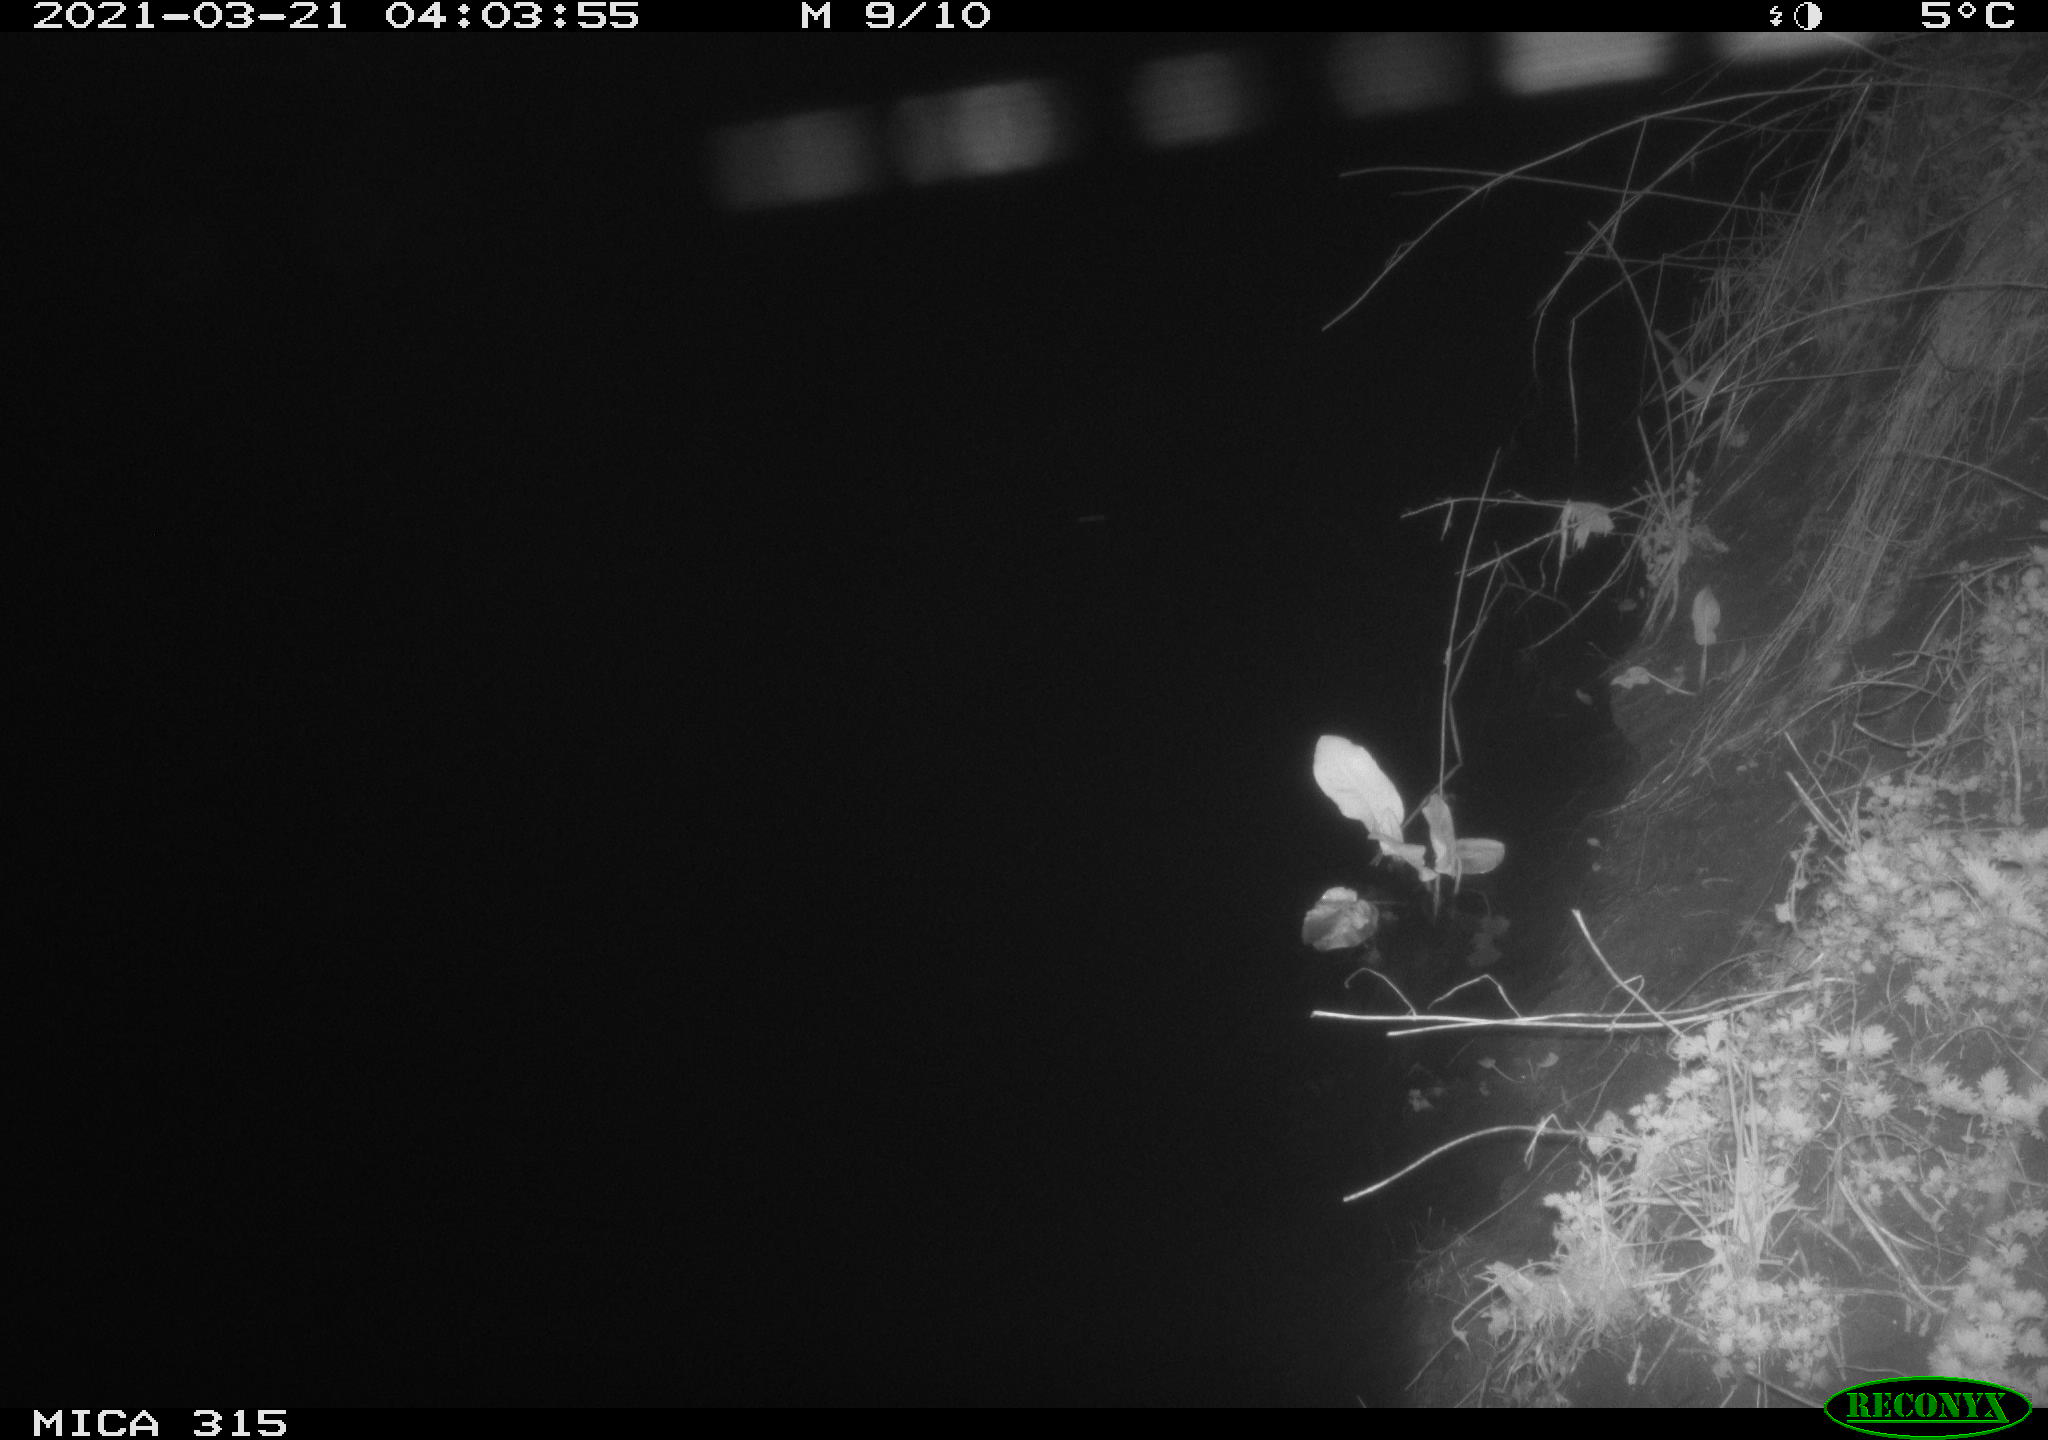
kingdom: Animalia
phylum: Chordata
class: Mammalia
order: Rodentia
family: Muridae
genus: Rattus
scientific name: Rattus norvegicus
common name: Brown rat
